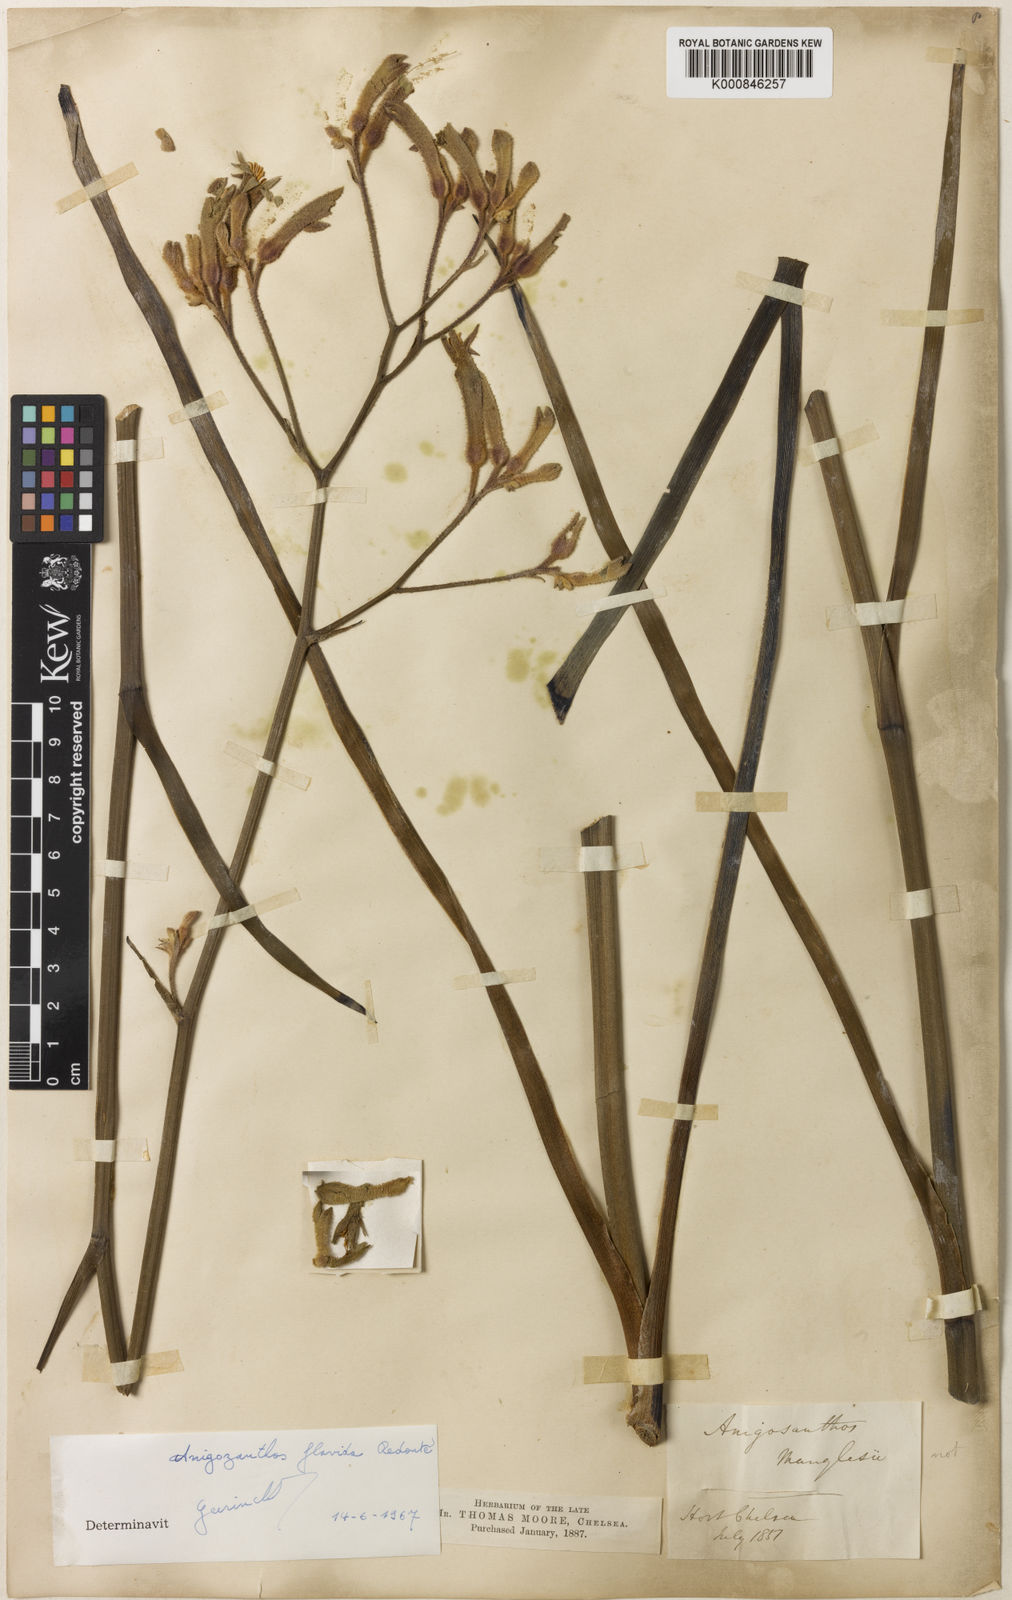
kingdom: Plantae
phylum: Tracheophyta
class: Liliopsida
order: Commelinales
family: Haemodoraceae
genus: Anigozanthos
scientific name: Anigozanthos
